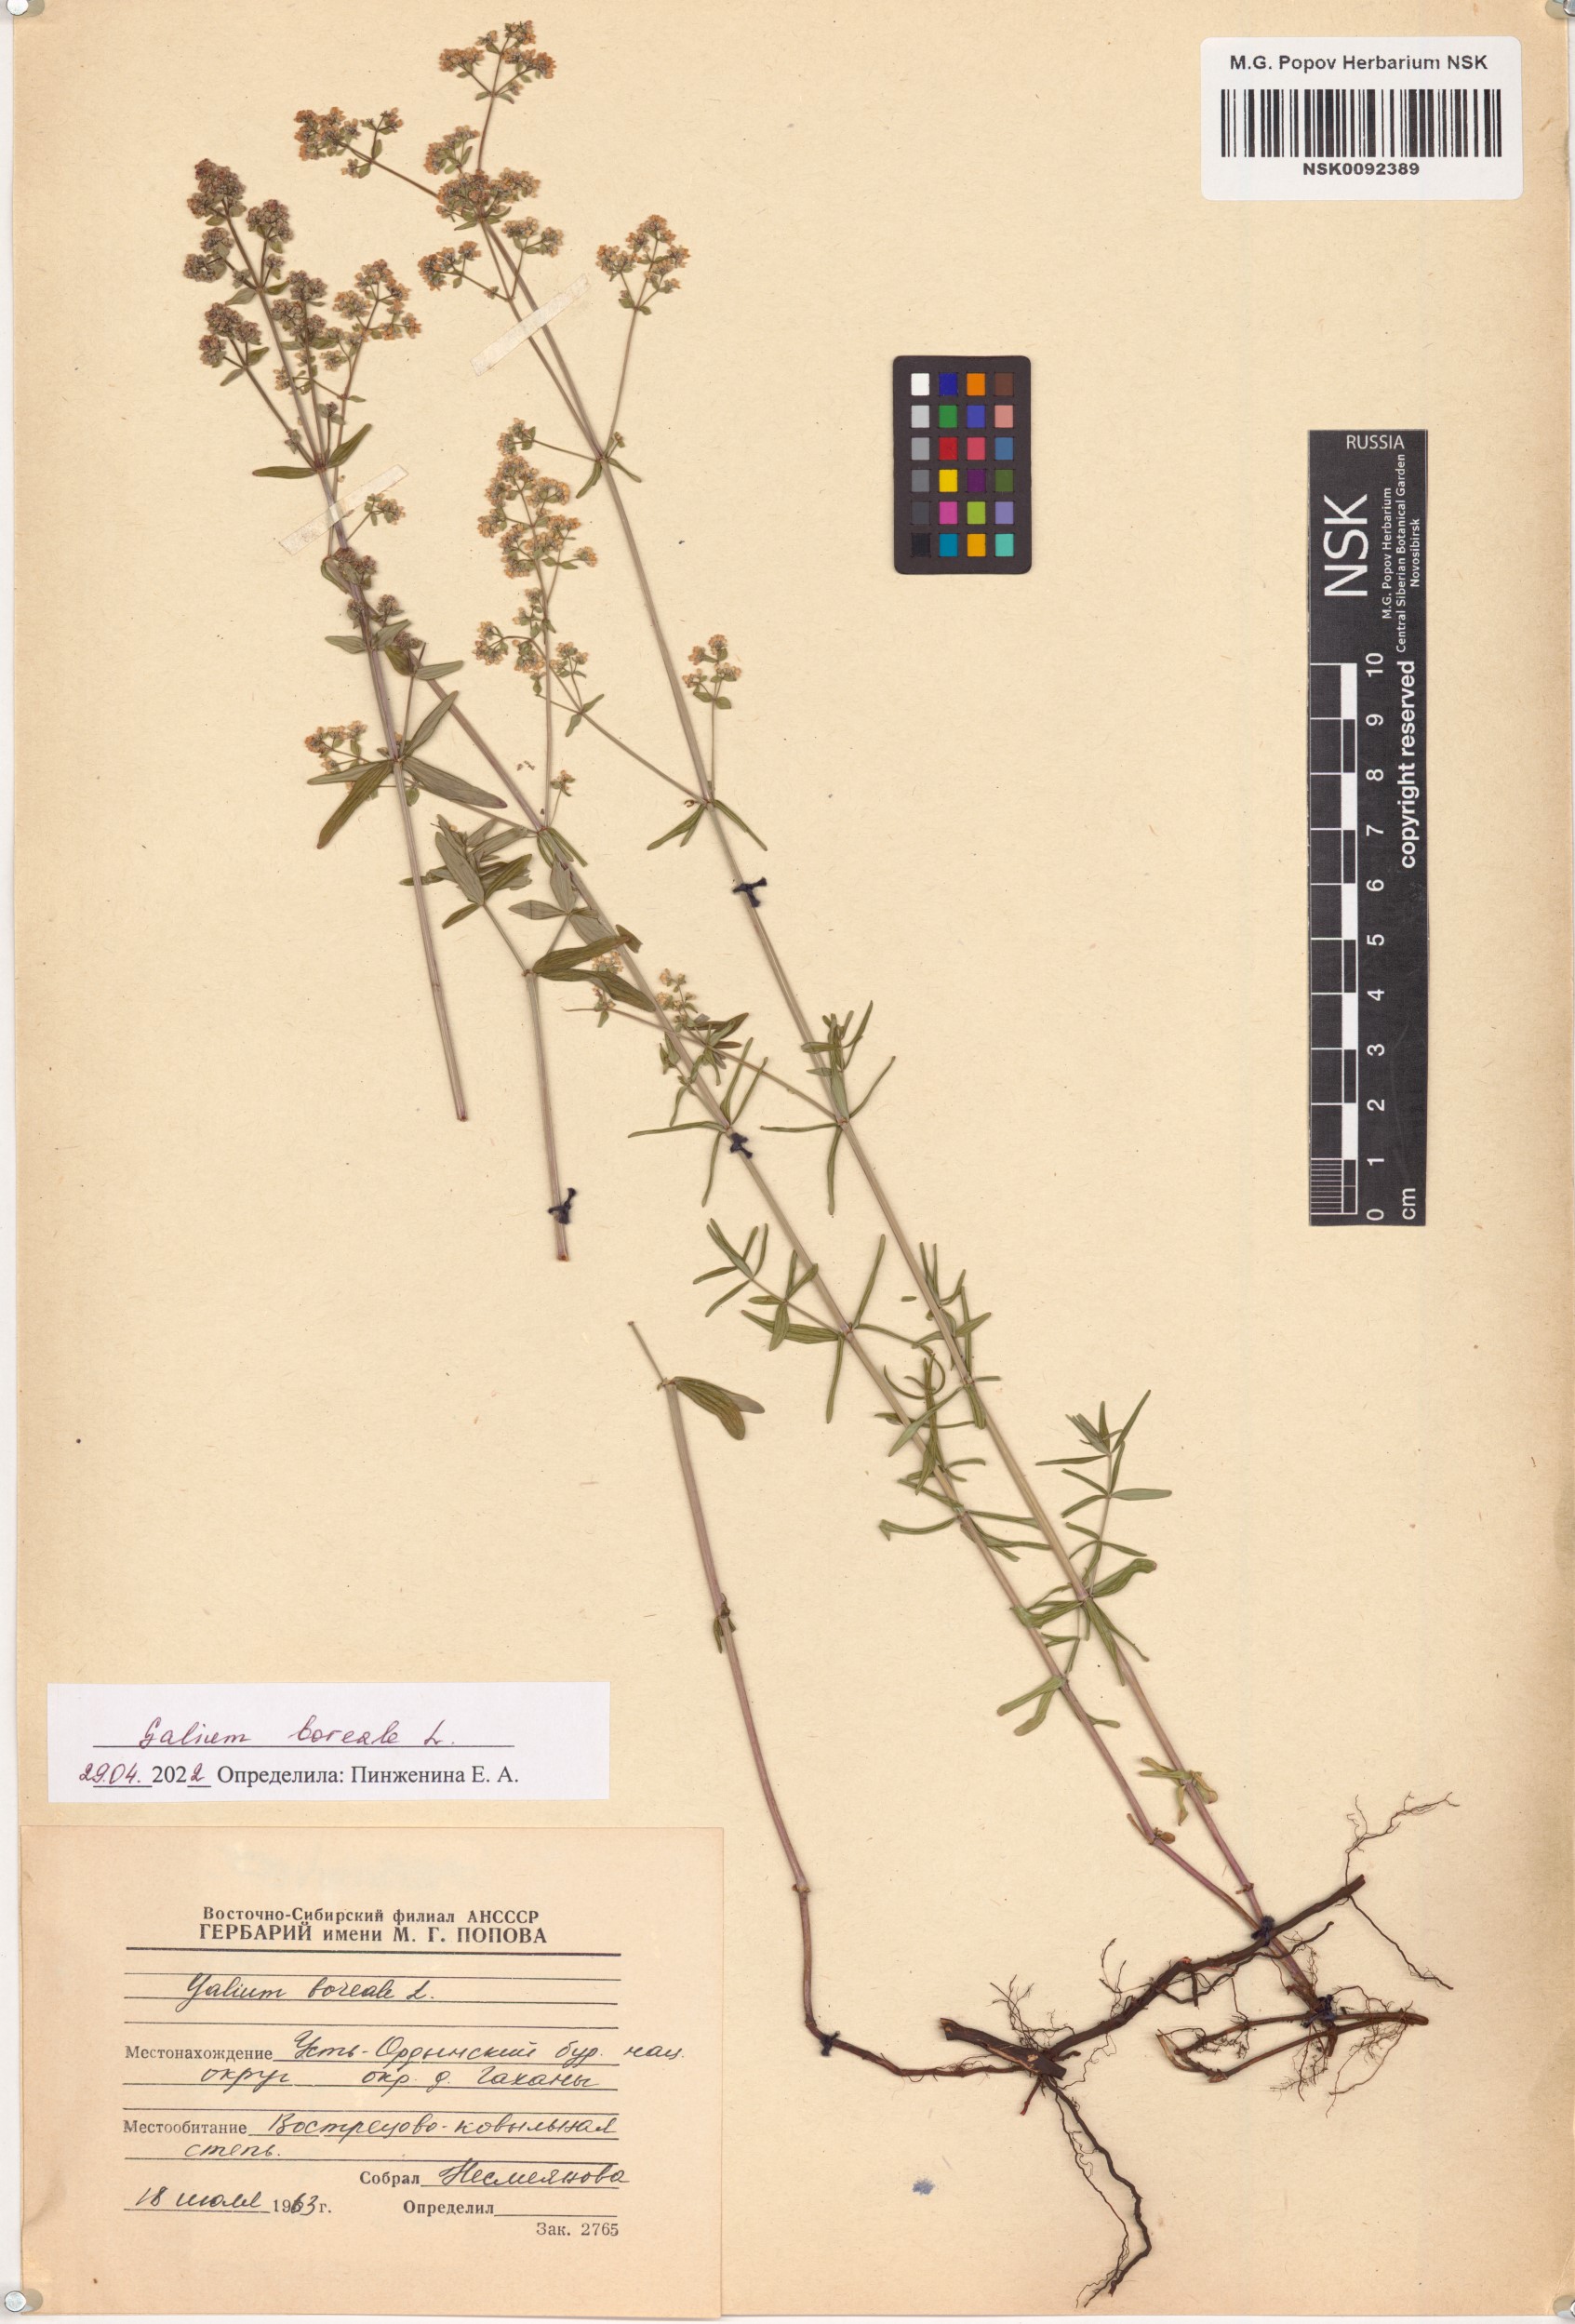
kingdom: Plantae
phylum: Tracheophyta
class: Magnoliopsida
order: Gentianales
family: Rubiaceae
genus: Galium
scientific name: Galium boreale
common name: Northern bedstraw
